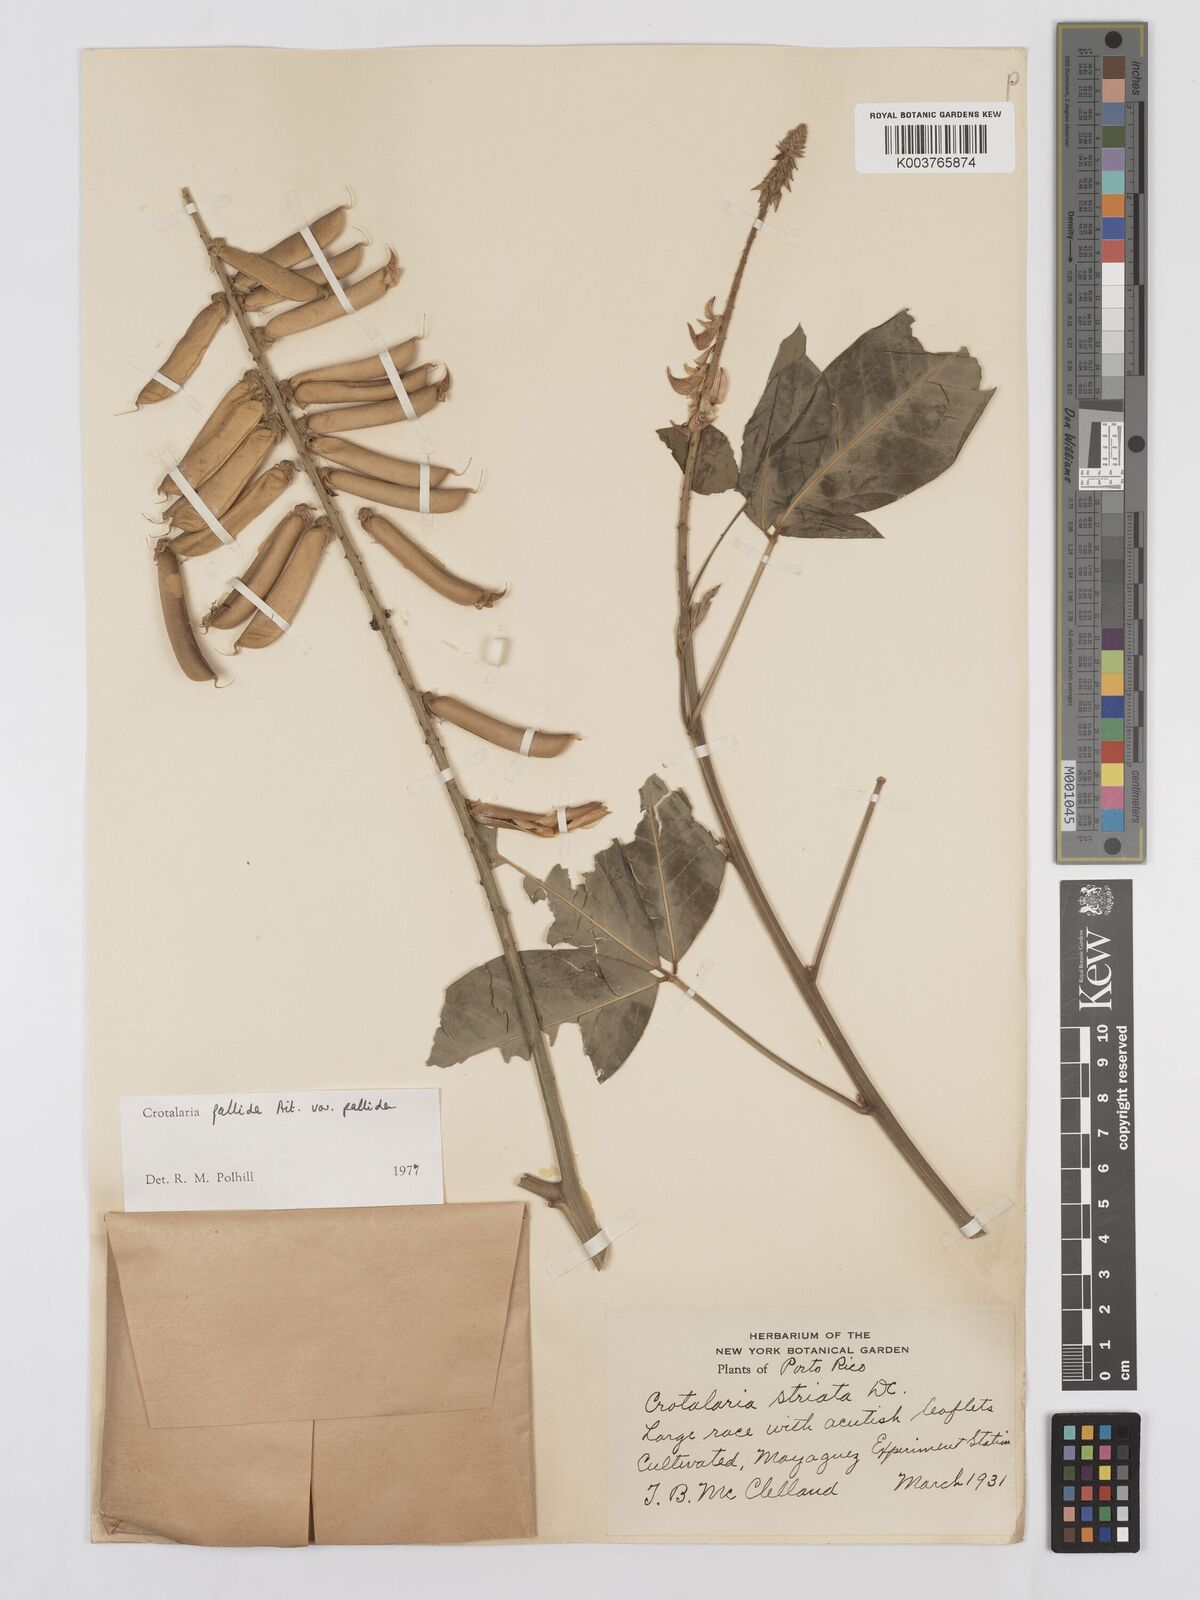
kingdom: Plantae
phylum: Tracheophyta
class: Magnoliopsida
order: Fabales
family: Fabaceae
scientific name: Fabaceae
